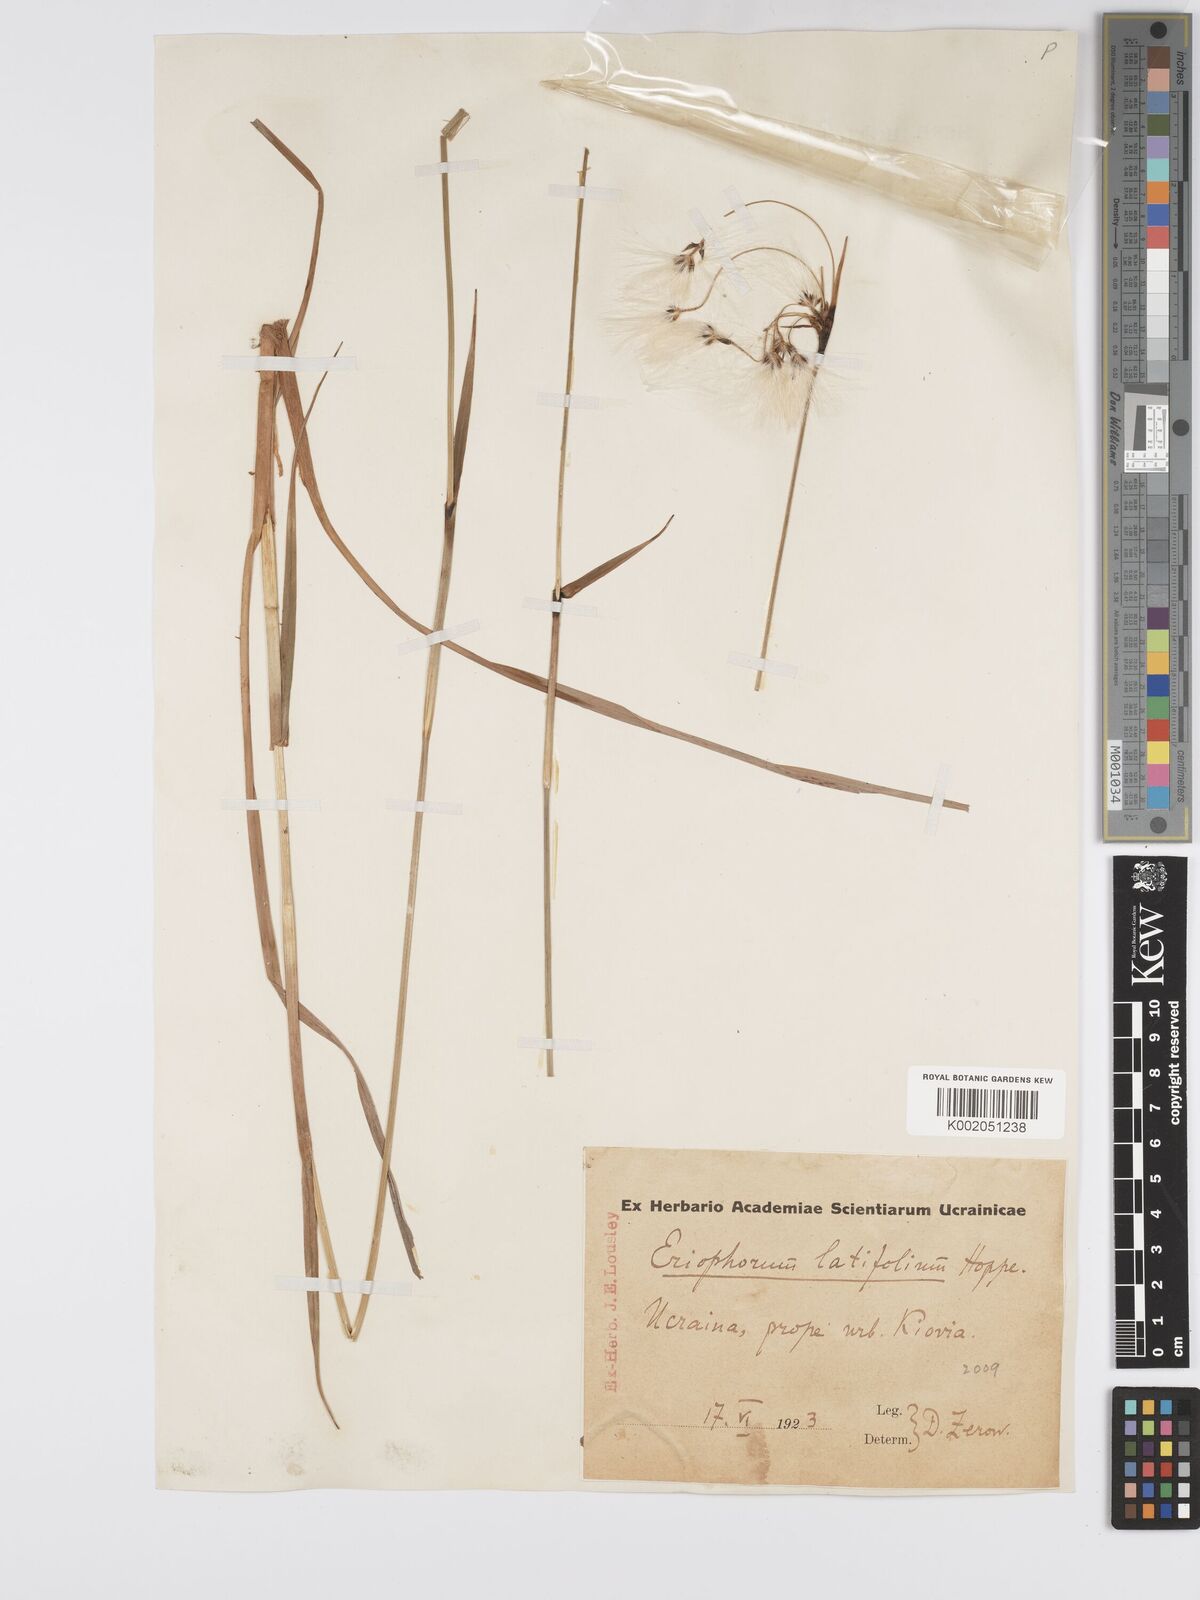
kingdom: Plantae
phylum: Tracheophyta
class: Liliopsida
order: Poales
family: Cyperaceae
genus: Eriophorum
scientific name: Eriophorum latifolium
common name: Broad-leaved cottongrass
